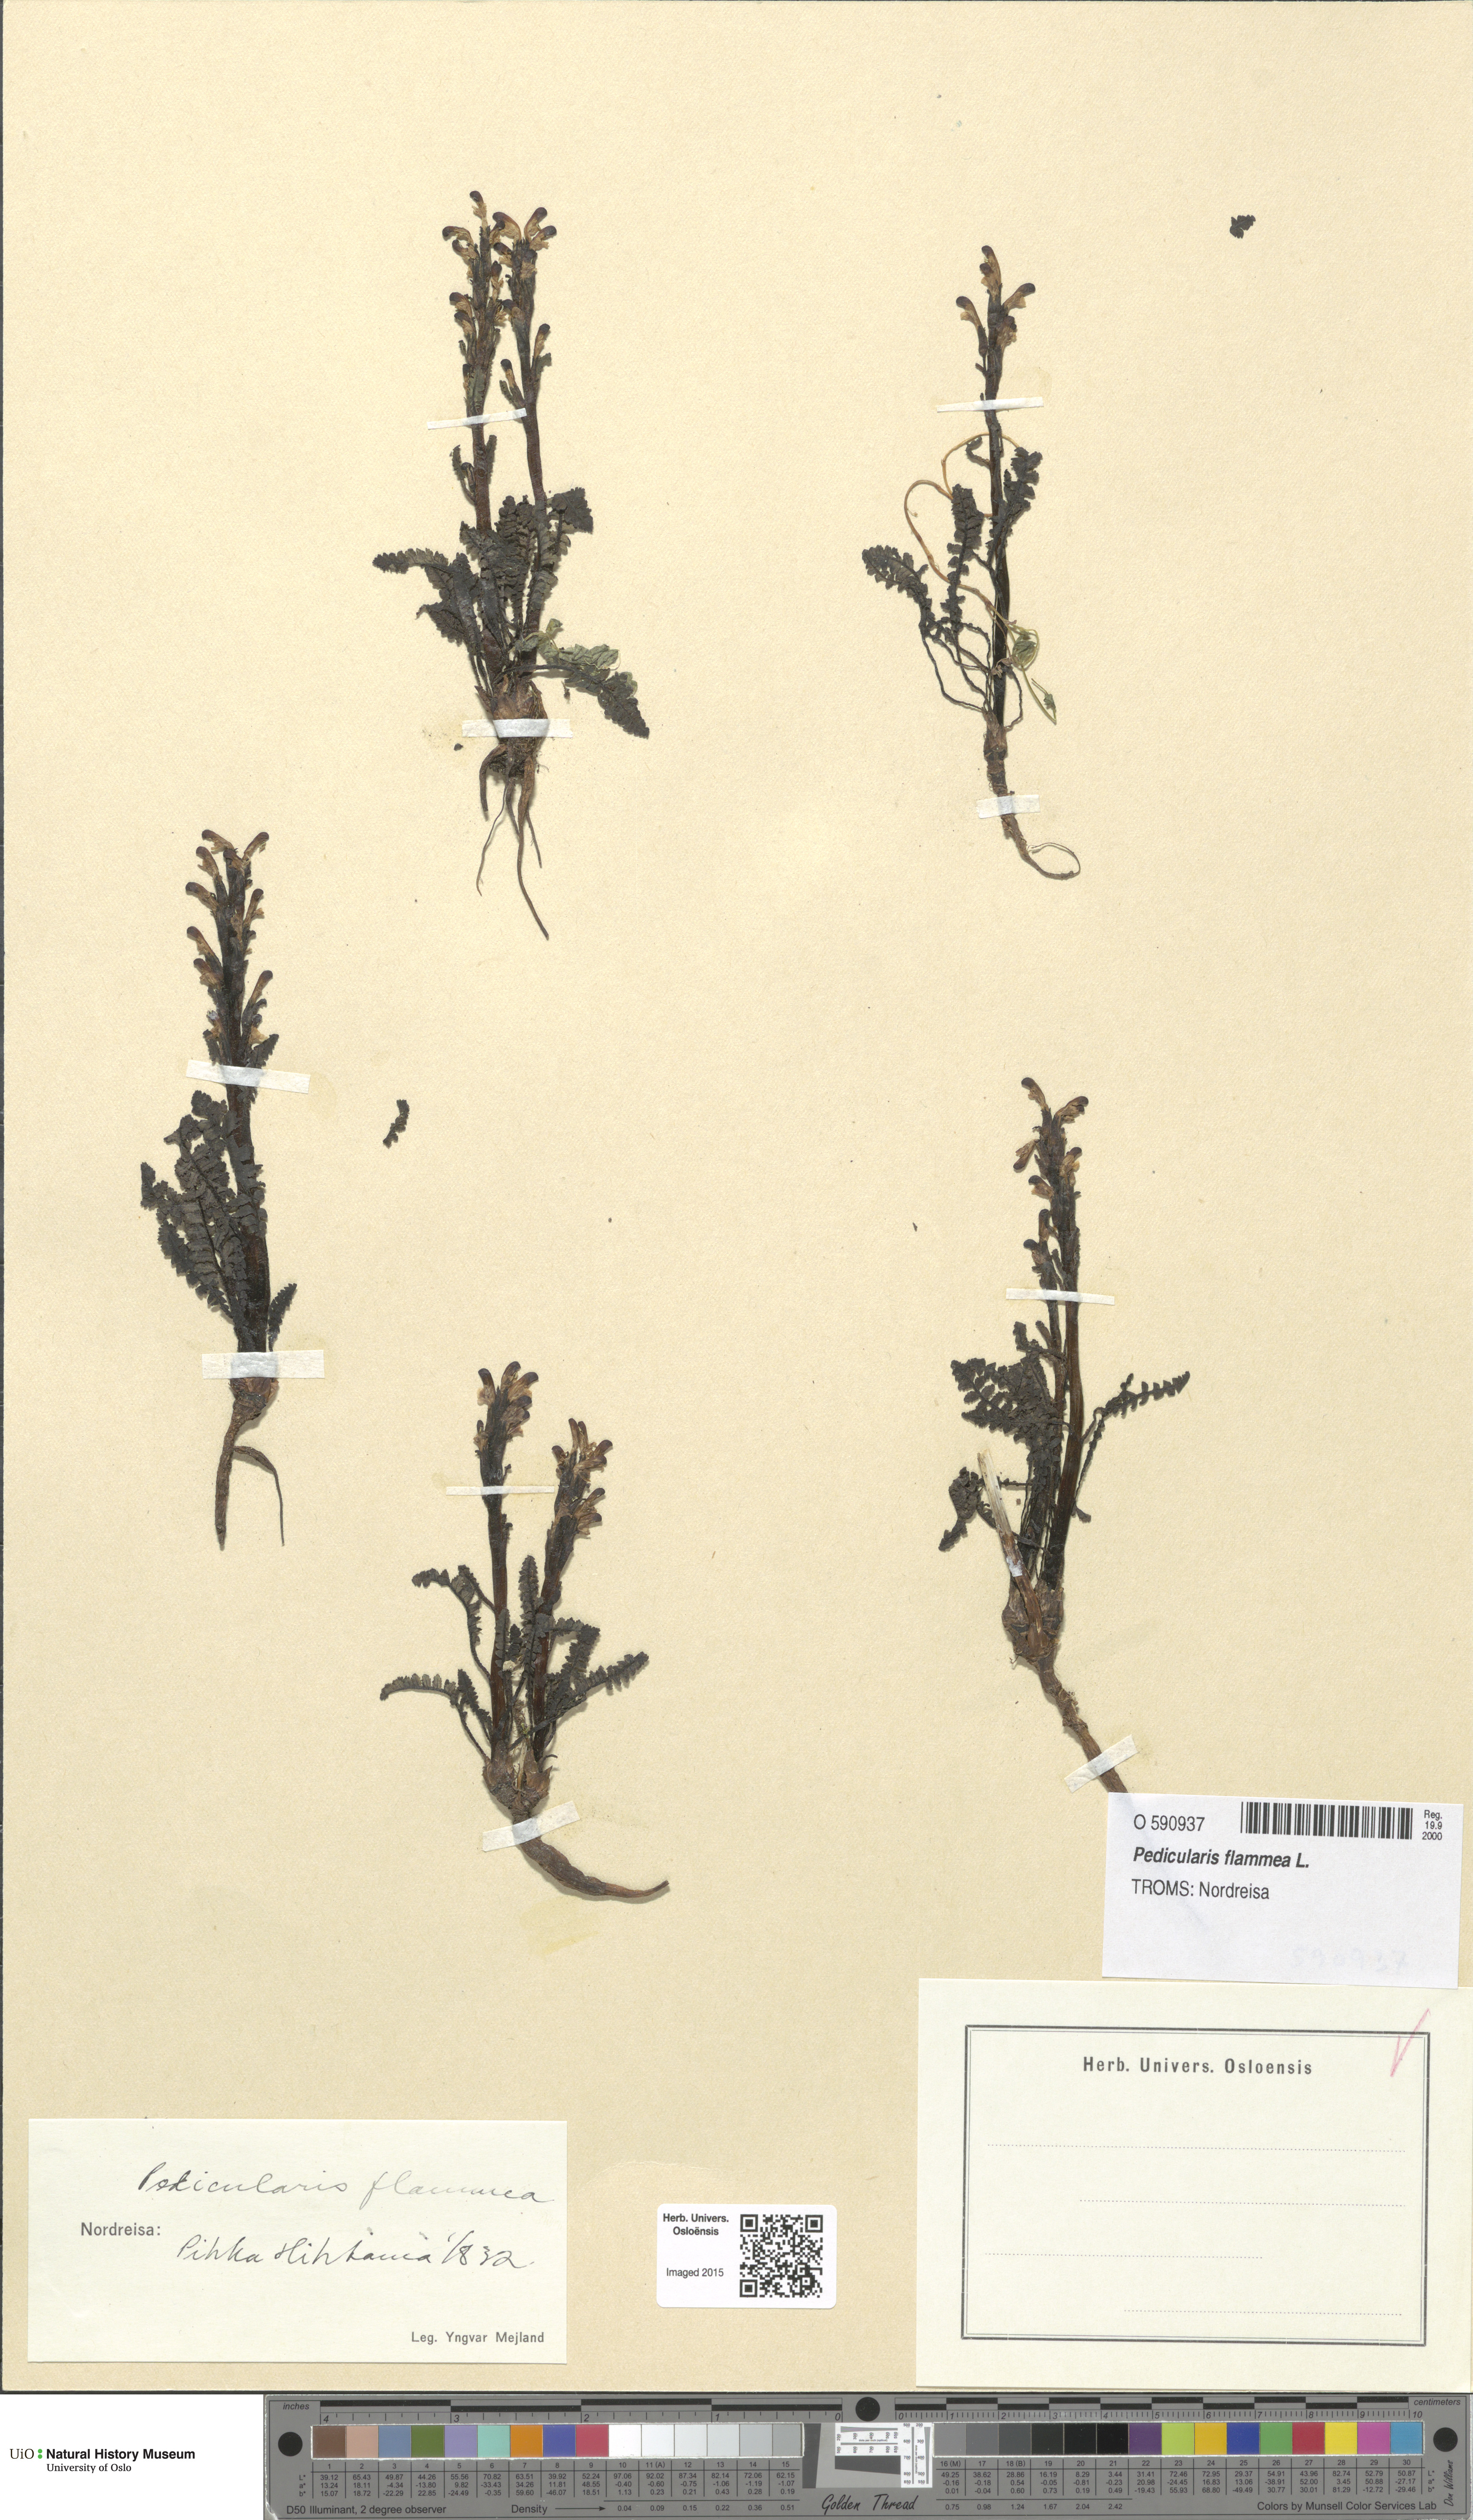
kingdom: Plantae
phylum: Tracheophyta
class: Magnoliopsida
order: Lamiales
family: Orobanchaceae
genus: Pedicularis
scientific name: Pedicularis flammea
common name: Flame-coloured lousewort
